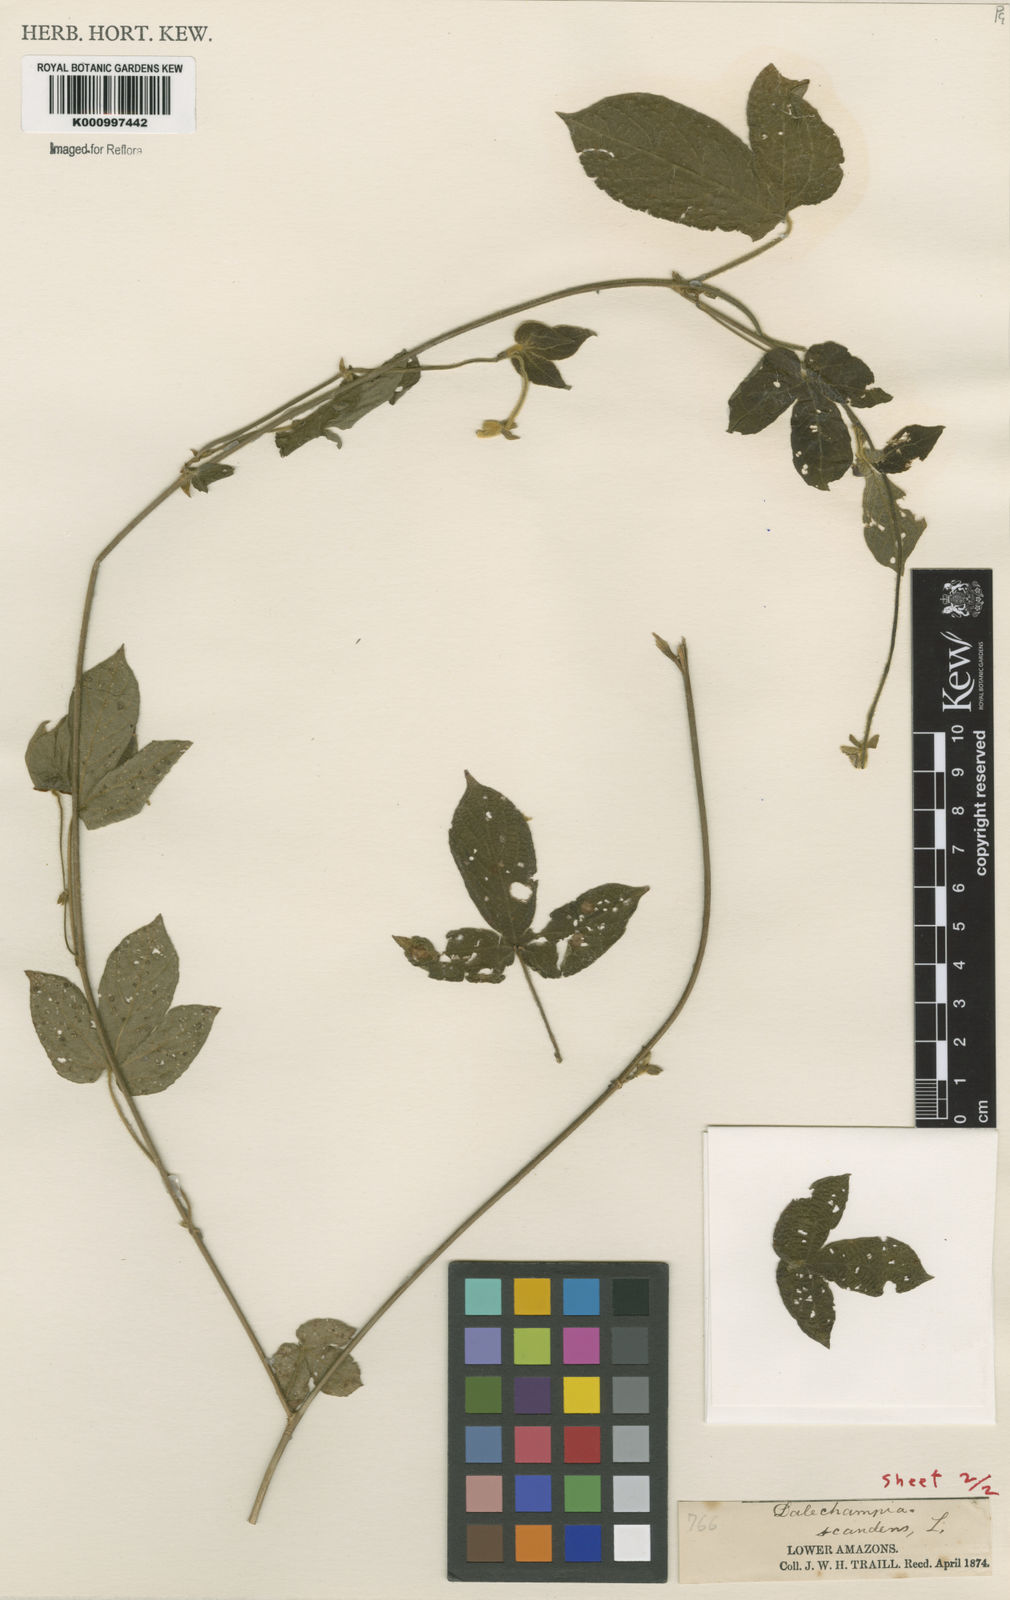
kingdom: Plantae
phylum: Tracheophyta
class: Magnoliopsida
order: Malpighiales
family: Euphorbiaceae
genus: Dalechampia
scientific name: Dalechampia scandens
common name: Spurgecreeper
